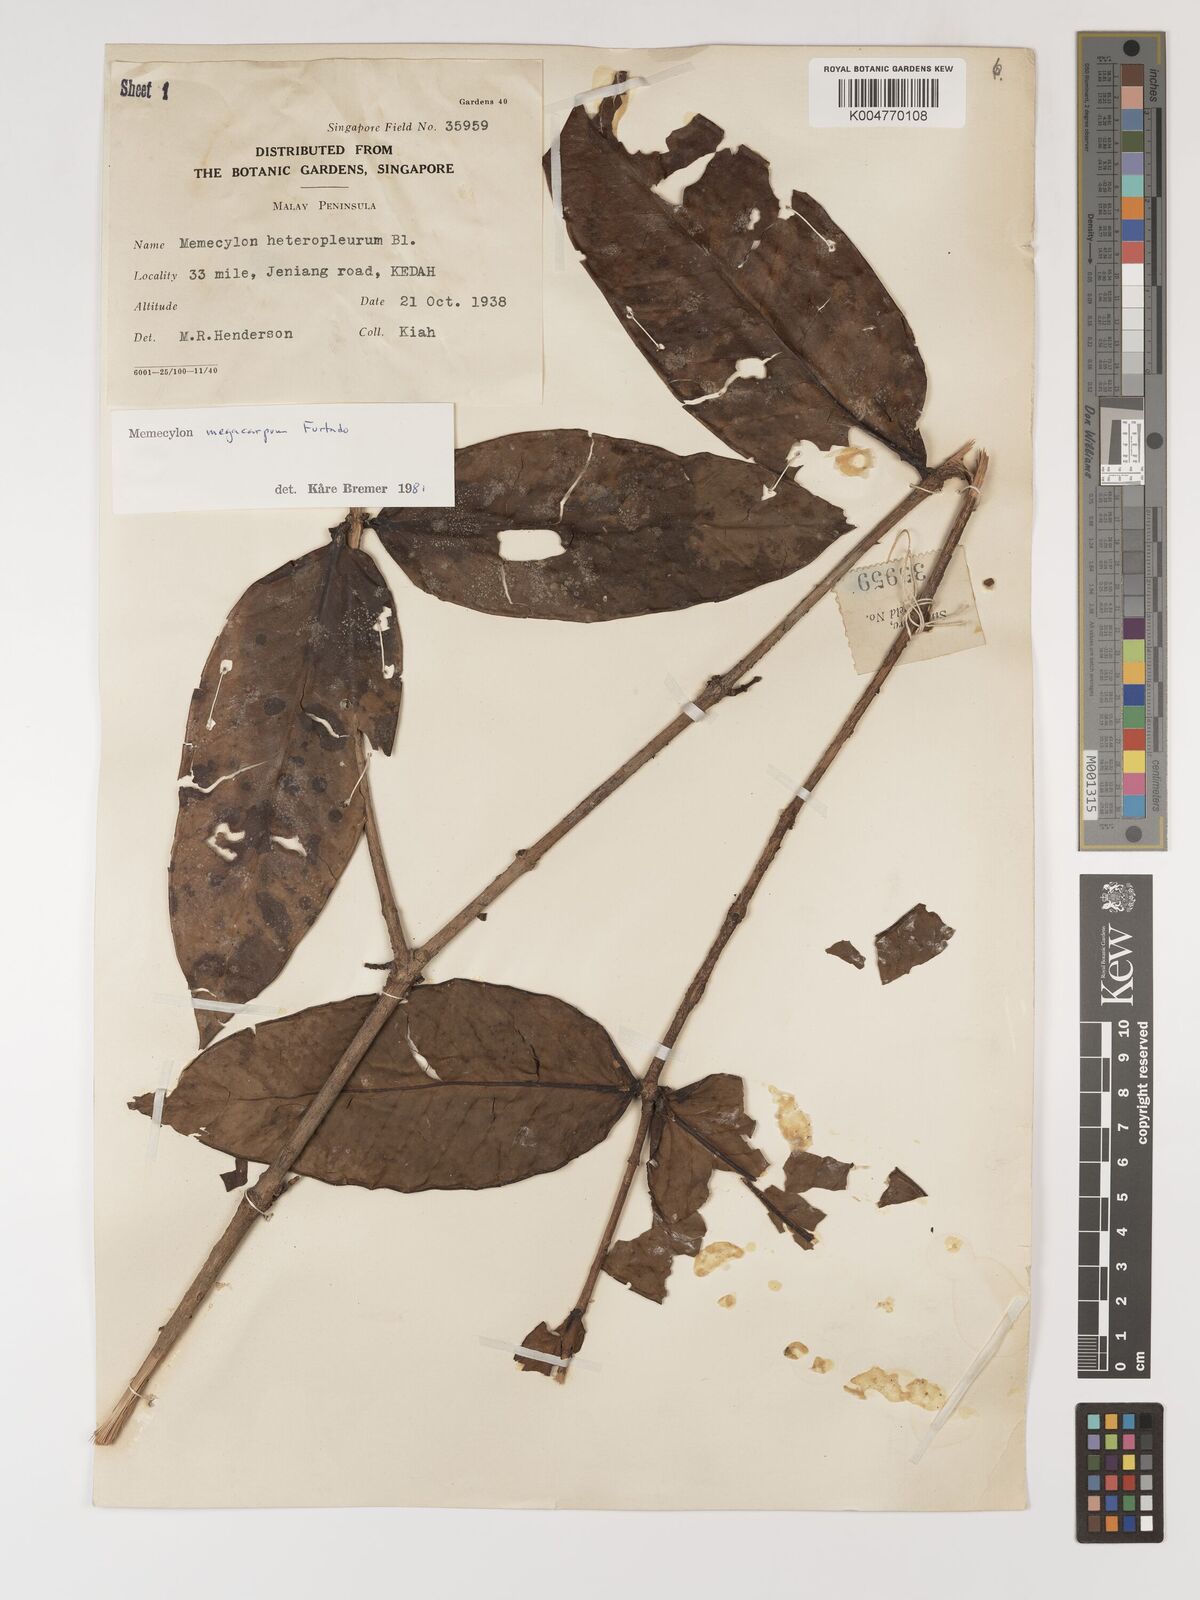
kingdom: Plantae
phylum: Tracheophyta
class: Magnoliopsida
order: Myrtales
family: Melastomataceae
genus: Memecylon
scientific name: Memecylon megacarpum
